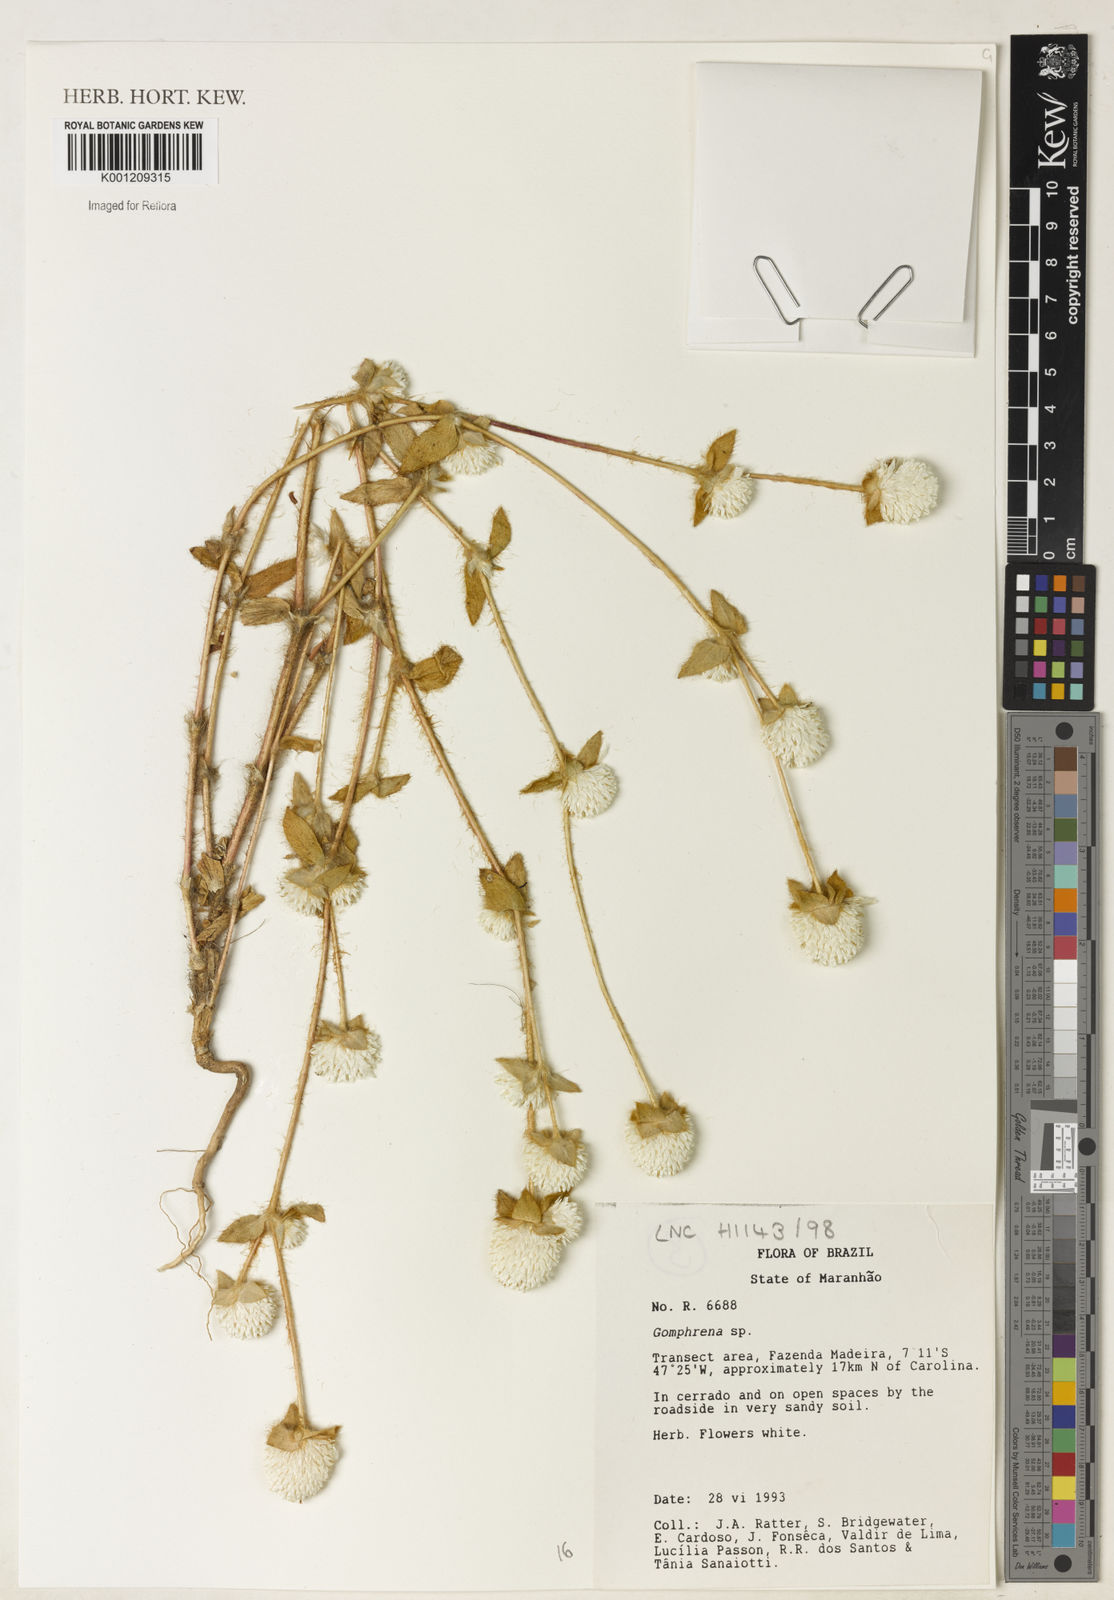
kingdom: Plantae
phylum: Tracheophyta
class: Magnoliopsida
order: Caryophyllales
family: Amaranthaceae
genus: Gomphrena
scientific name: Gomphrena
